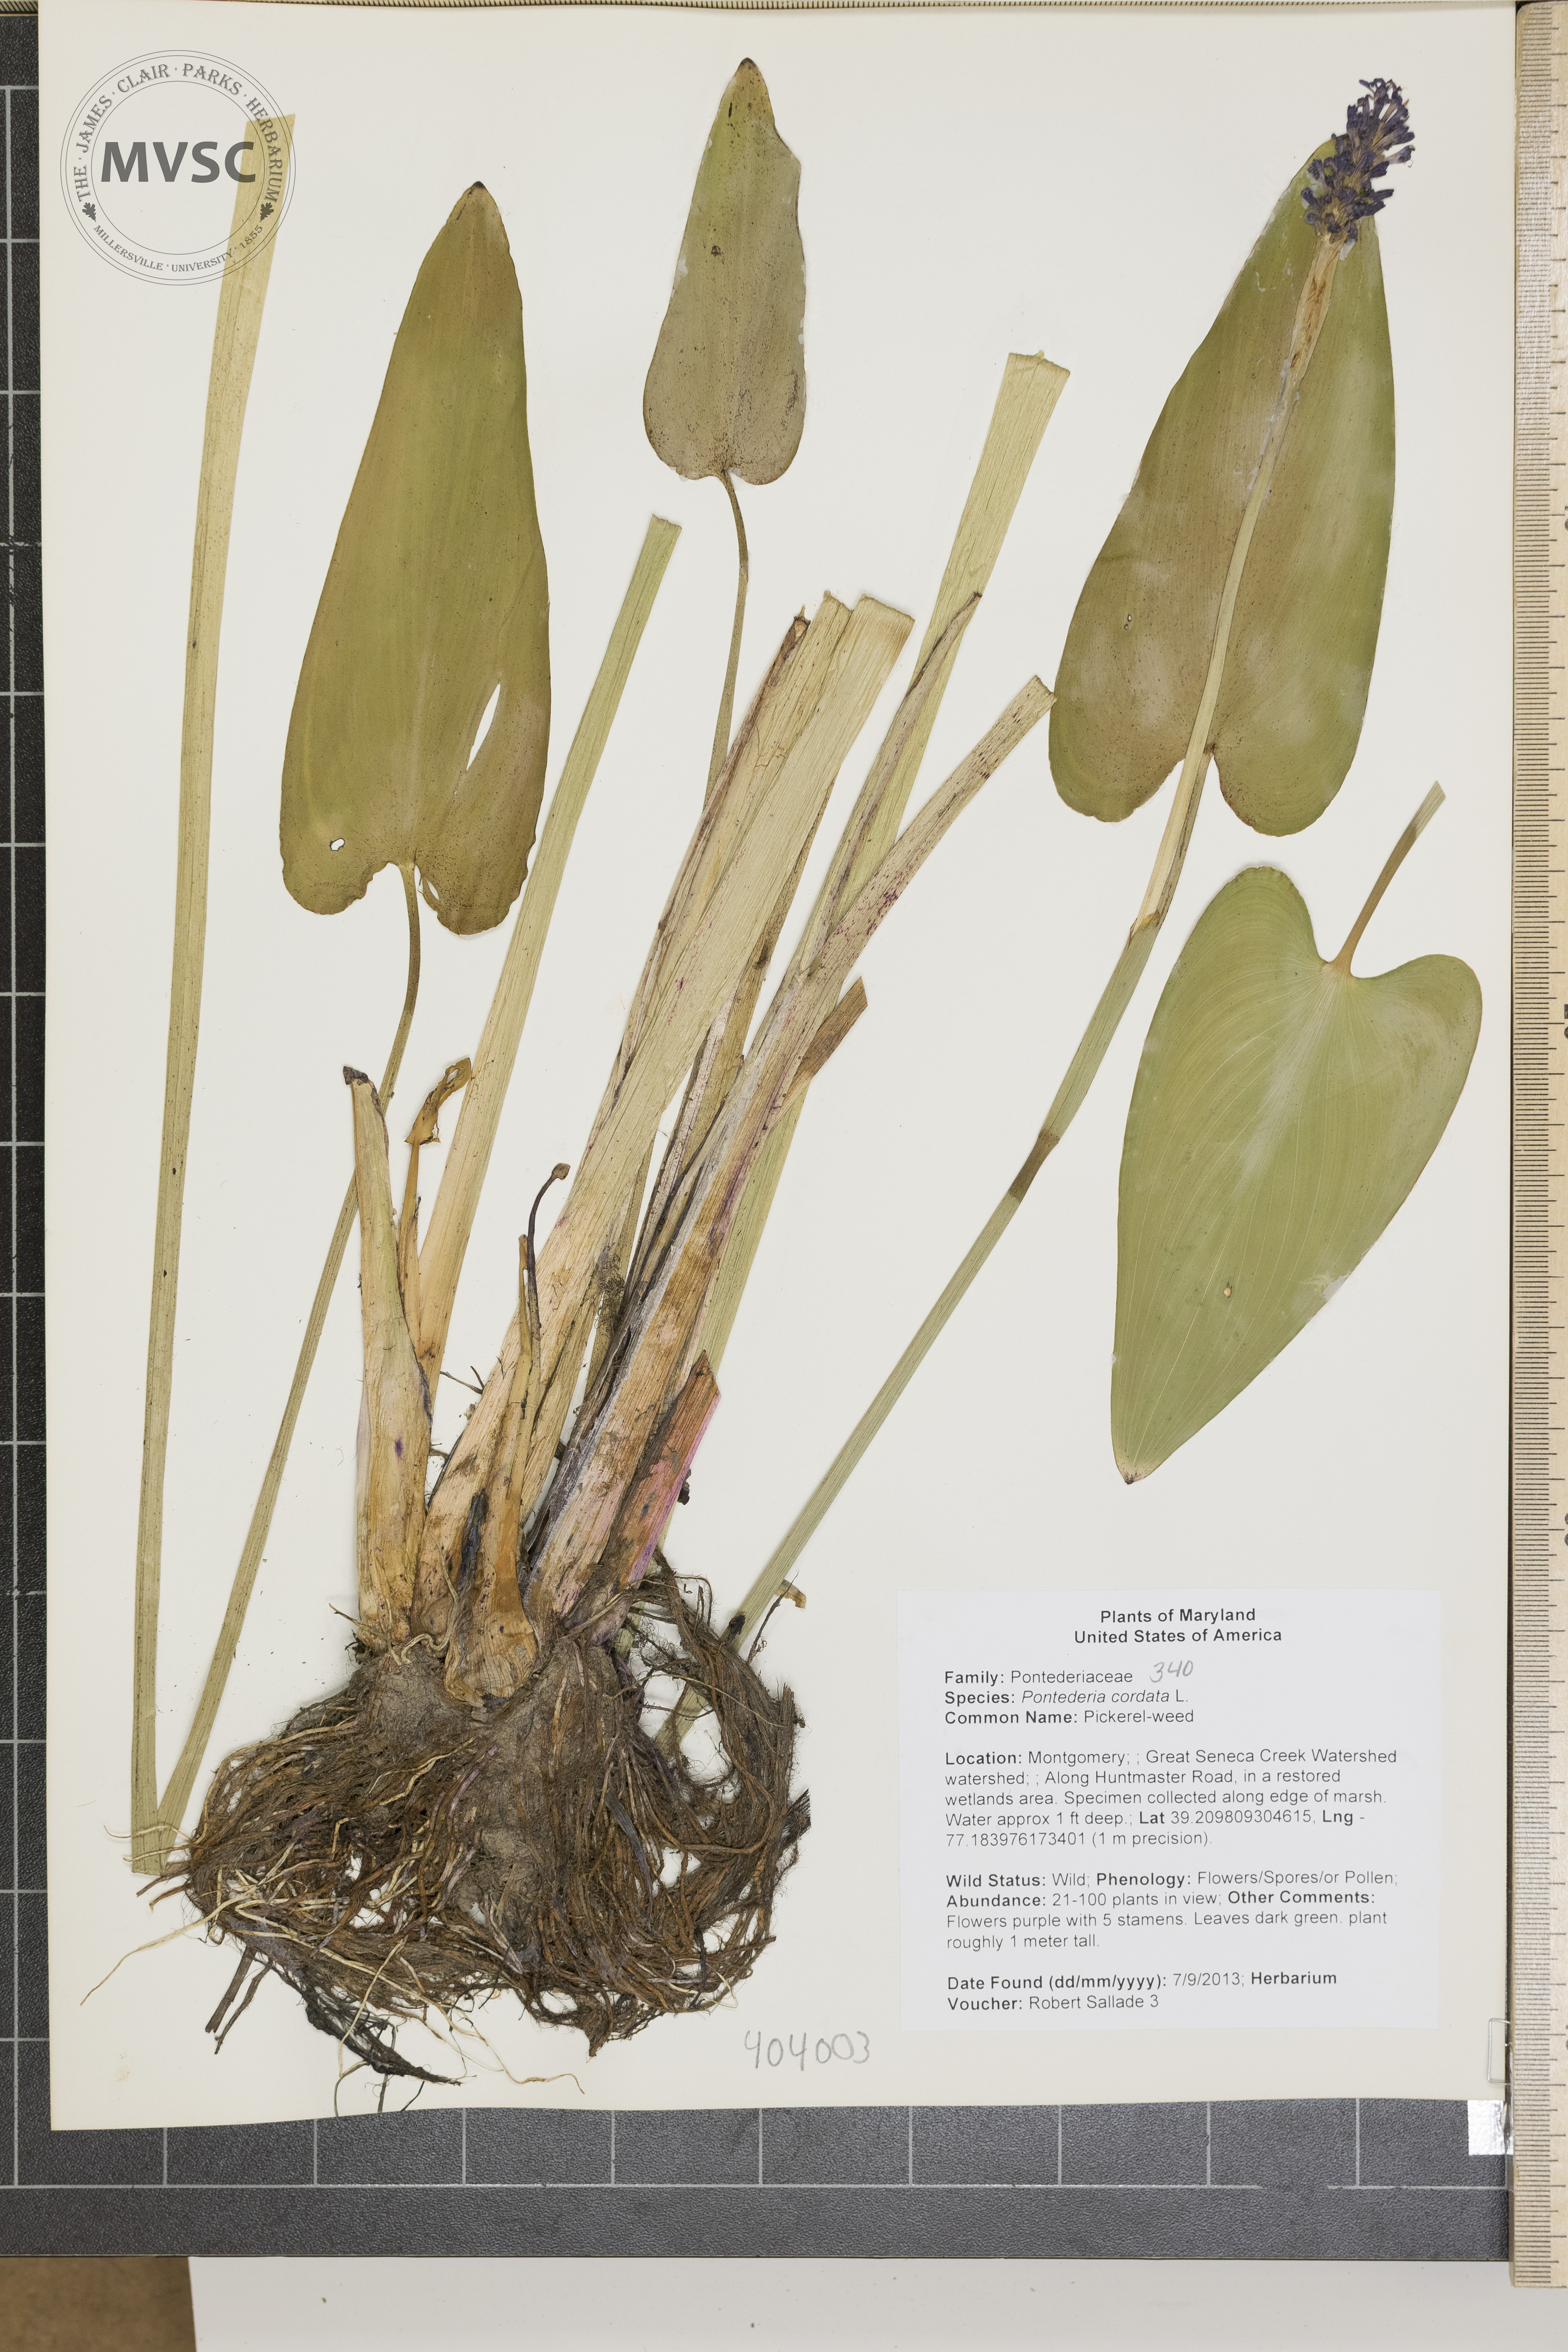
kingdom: Plantae
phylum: Tracheophyta
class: Liliopsida
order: Commelinales
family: Pontederiaceae
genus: Pontederia
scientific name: Pontederia cordata
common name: Pickerel-weed
